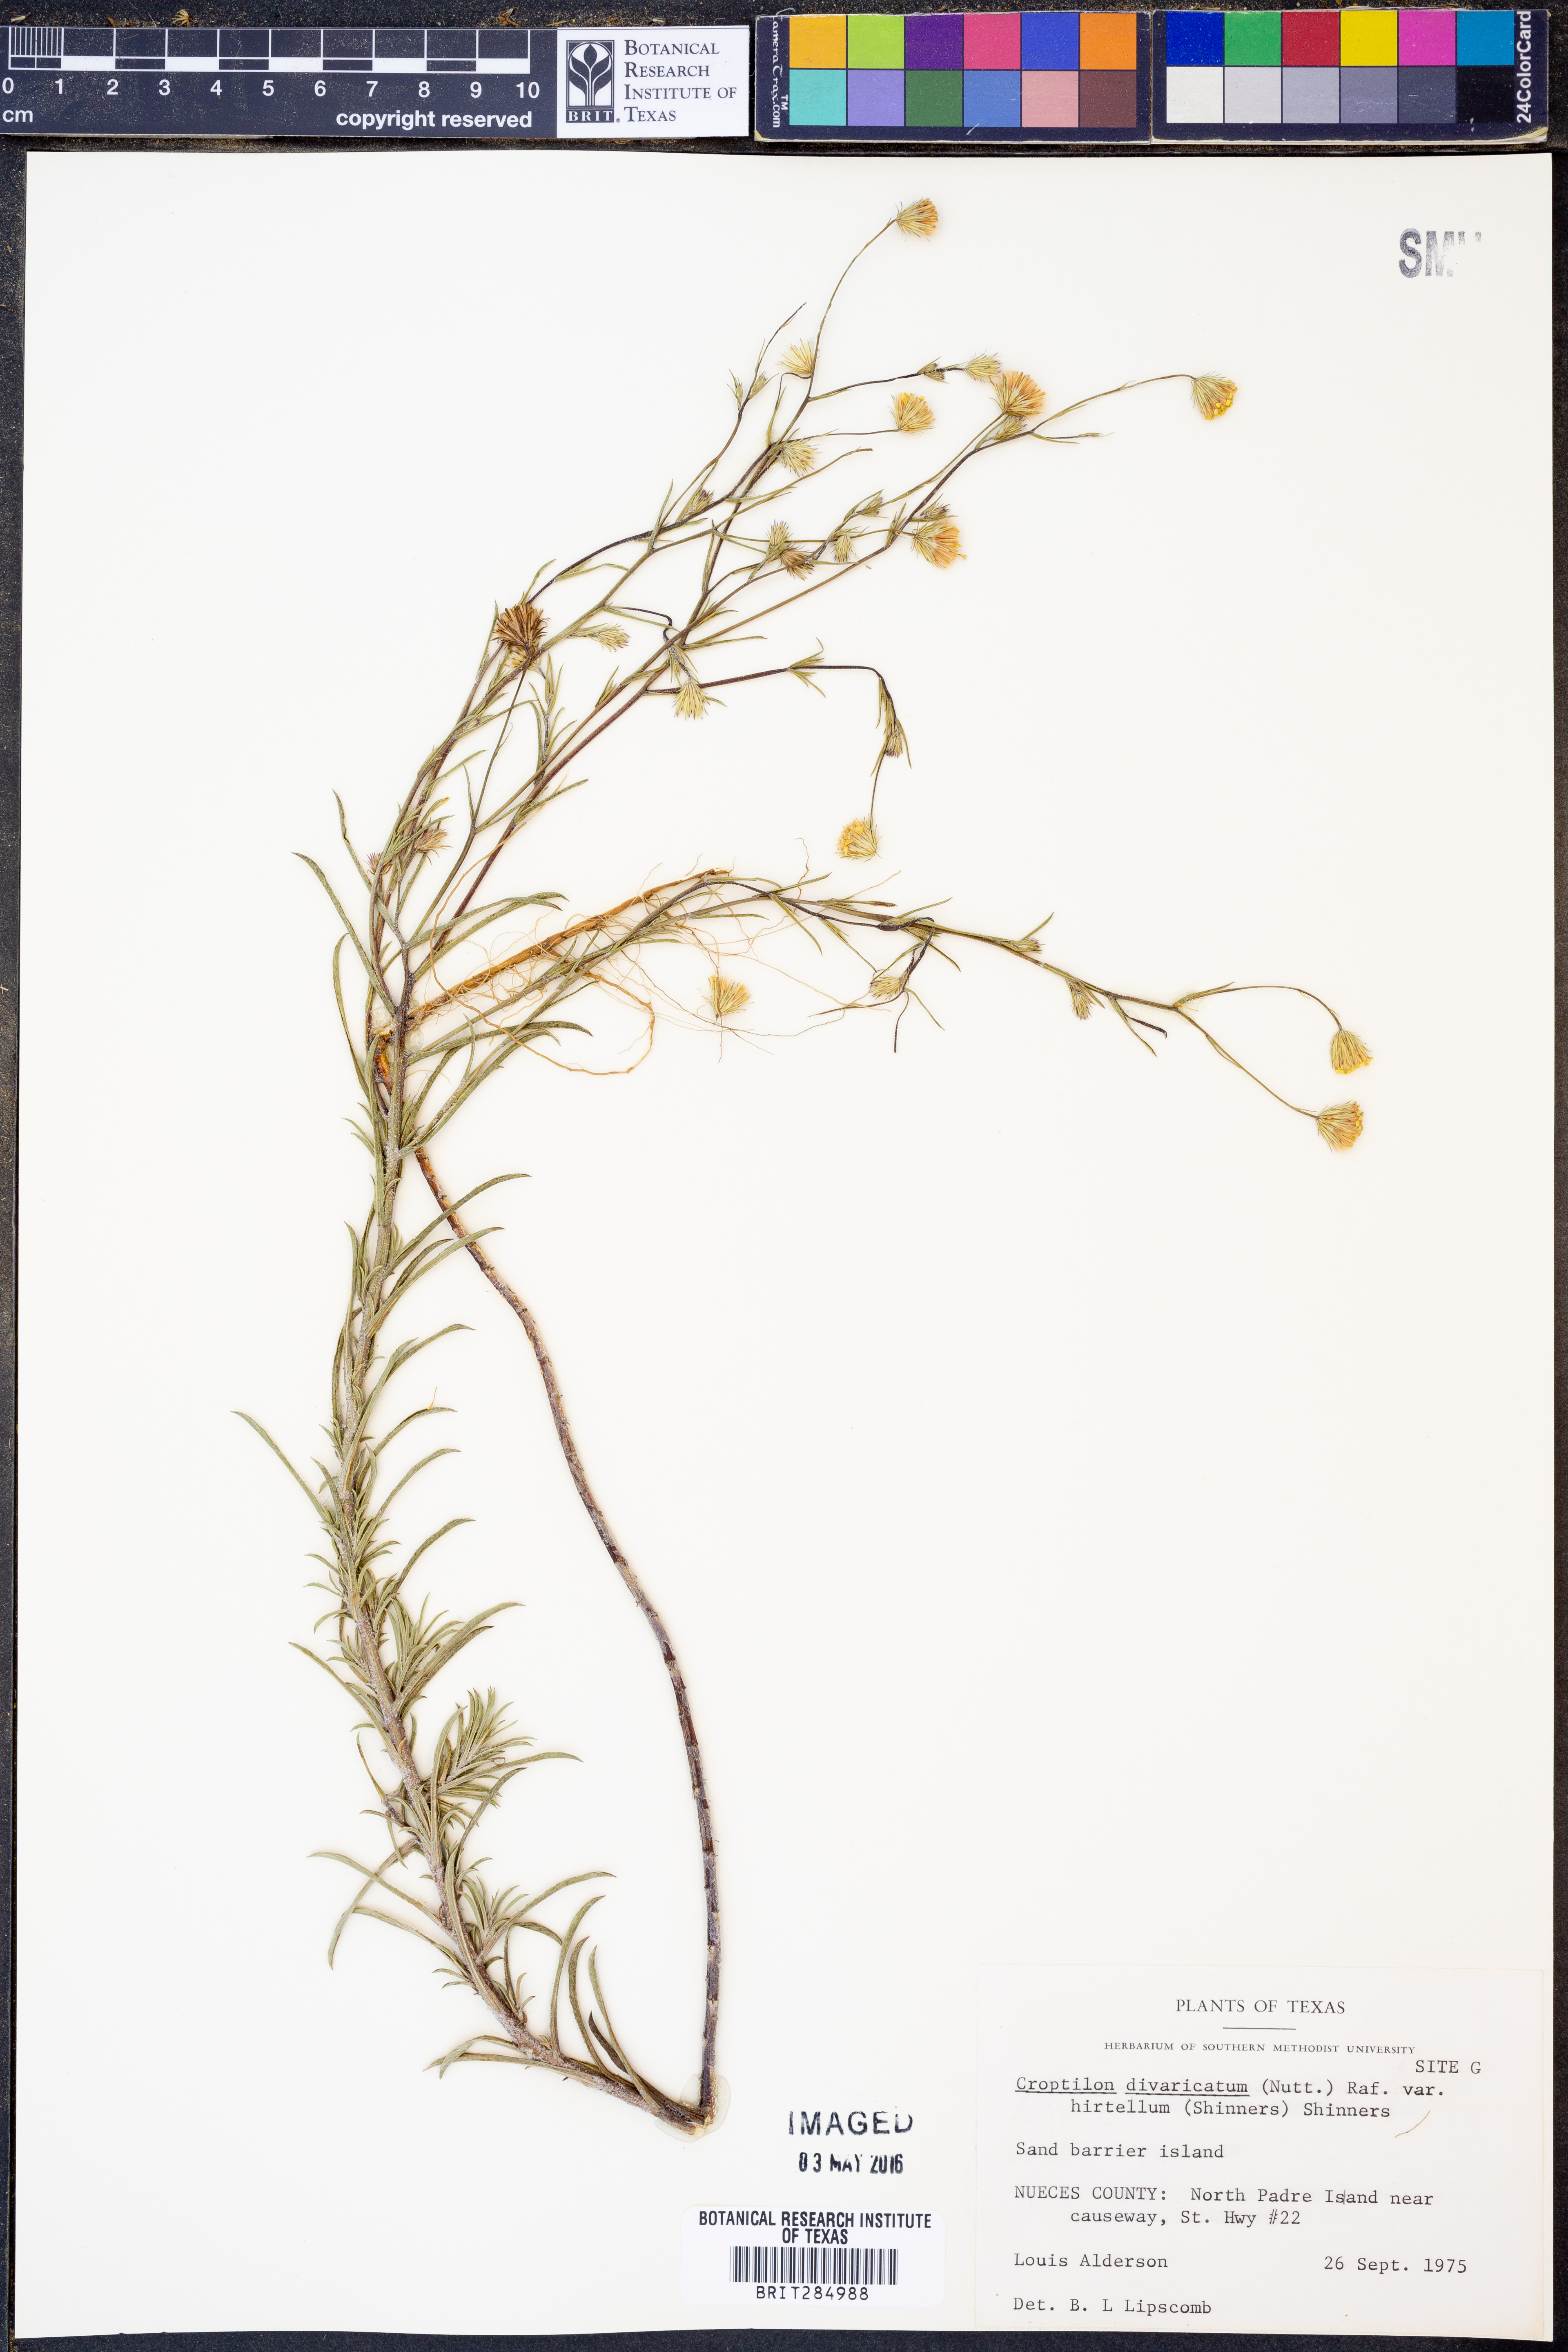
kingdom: Plantae
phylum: Tracheophyta
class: Magnoliopsida
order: Asterales
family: Asteraceae
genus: Croptilon
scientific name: Croptilon rigidifolium
